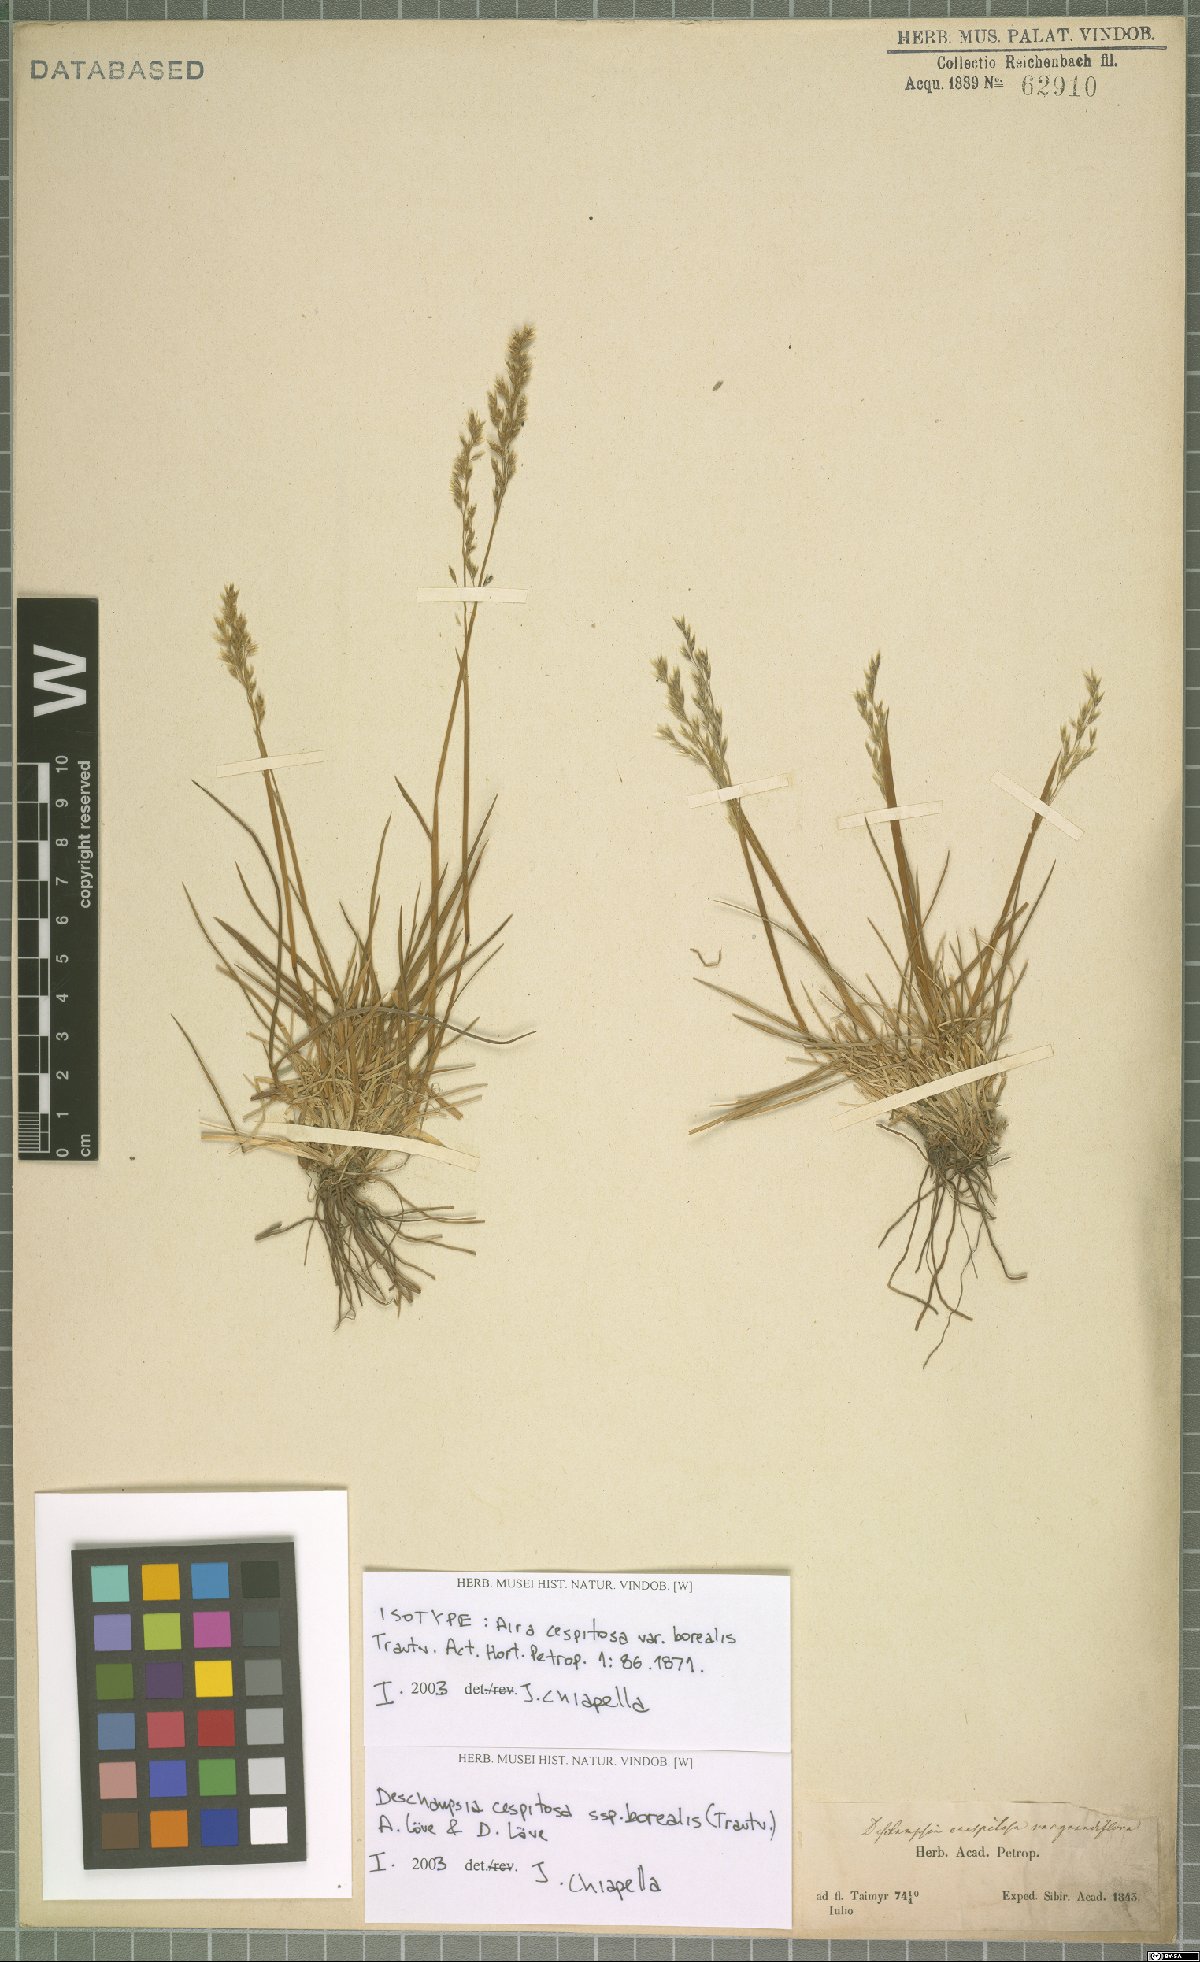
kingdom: Plantae
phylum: Tracheophyta
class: Liliopsida
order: Poales
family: Poaceae
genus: Deschampsia
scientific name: Deschampsia cespitosa
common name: Tufted hair-grass
